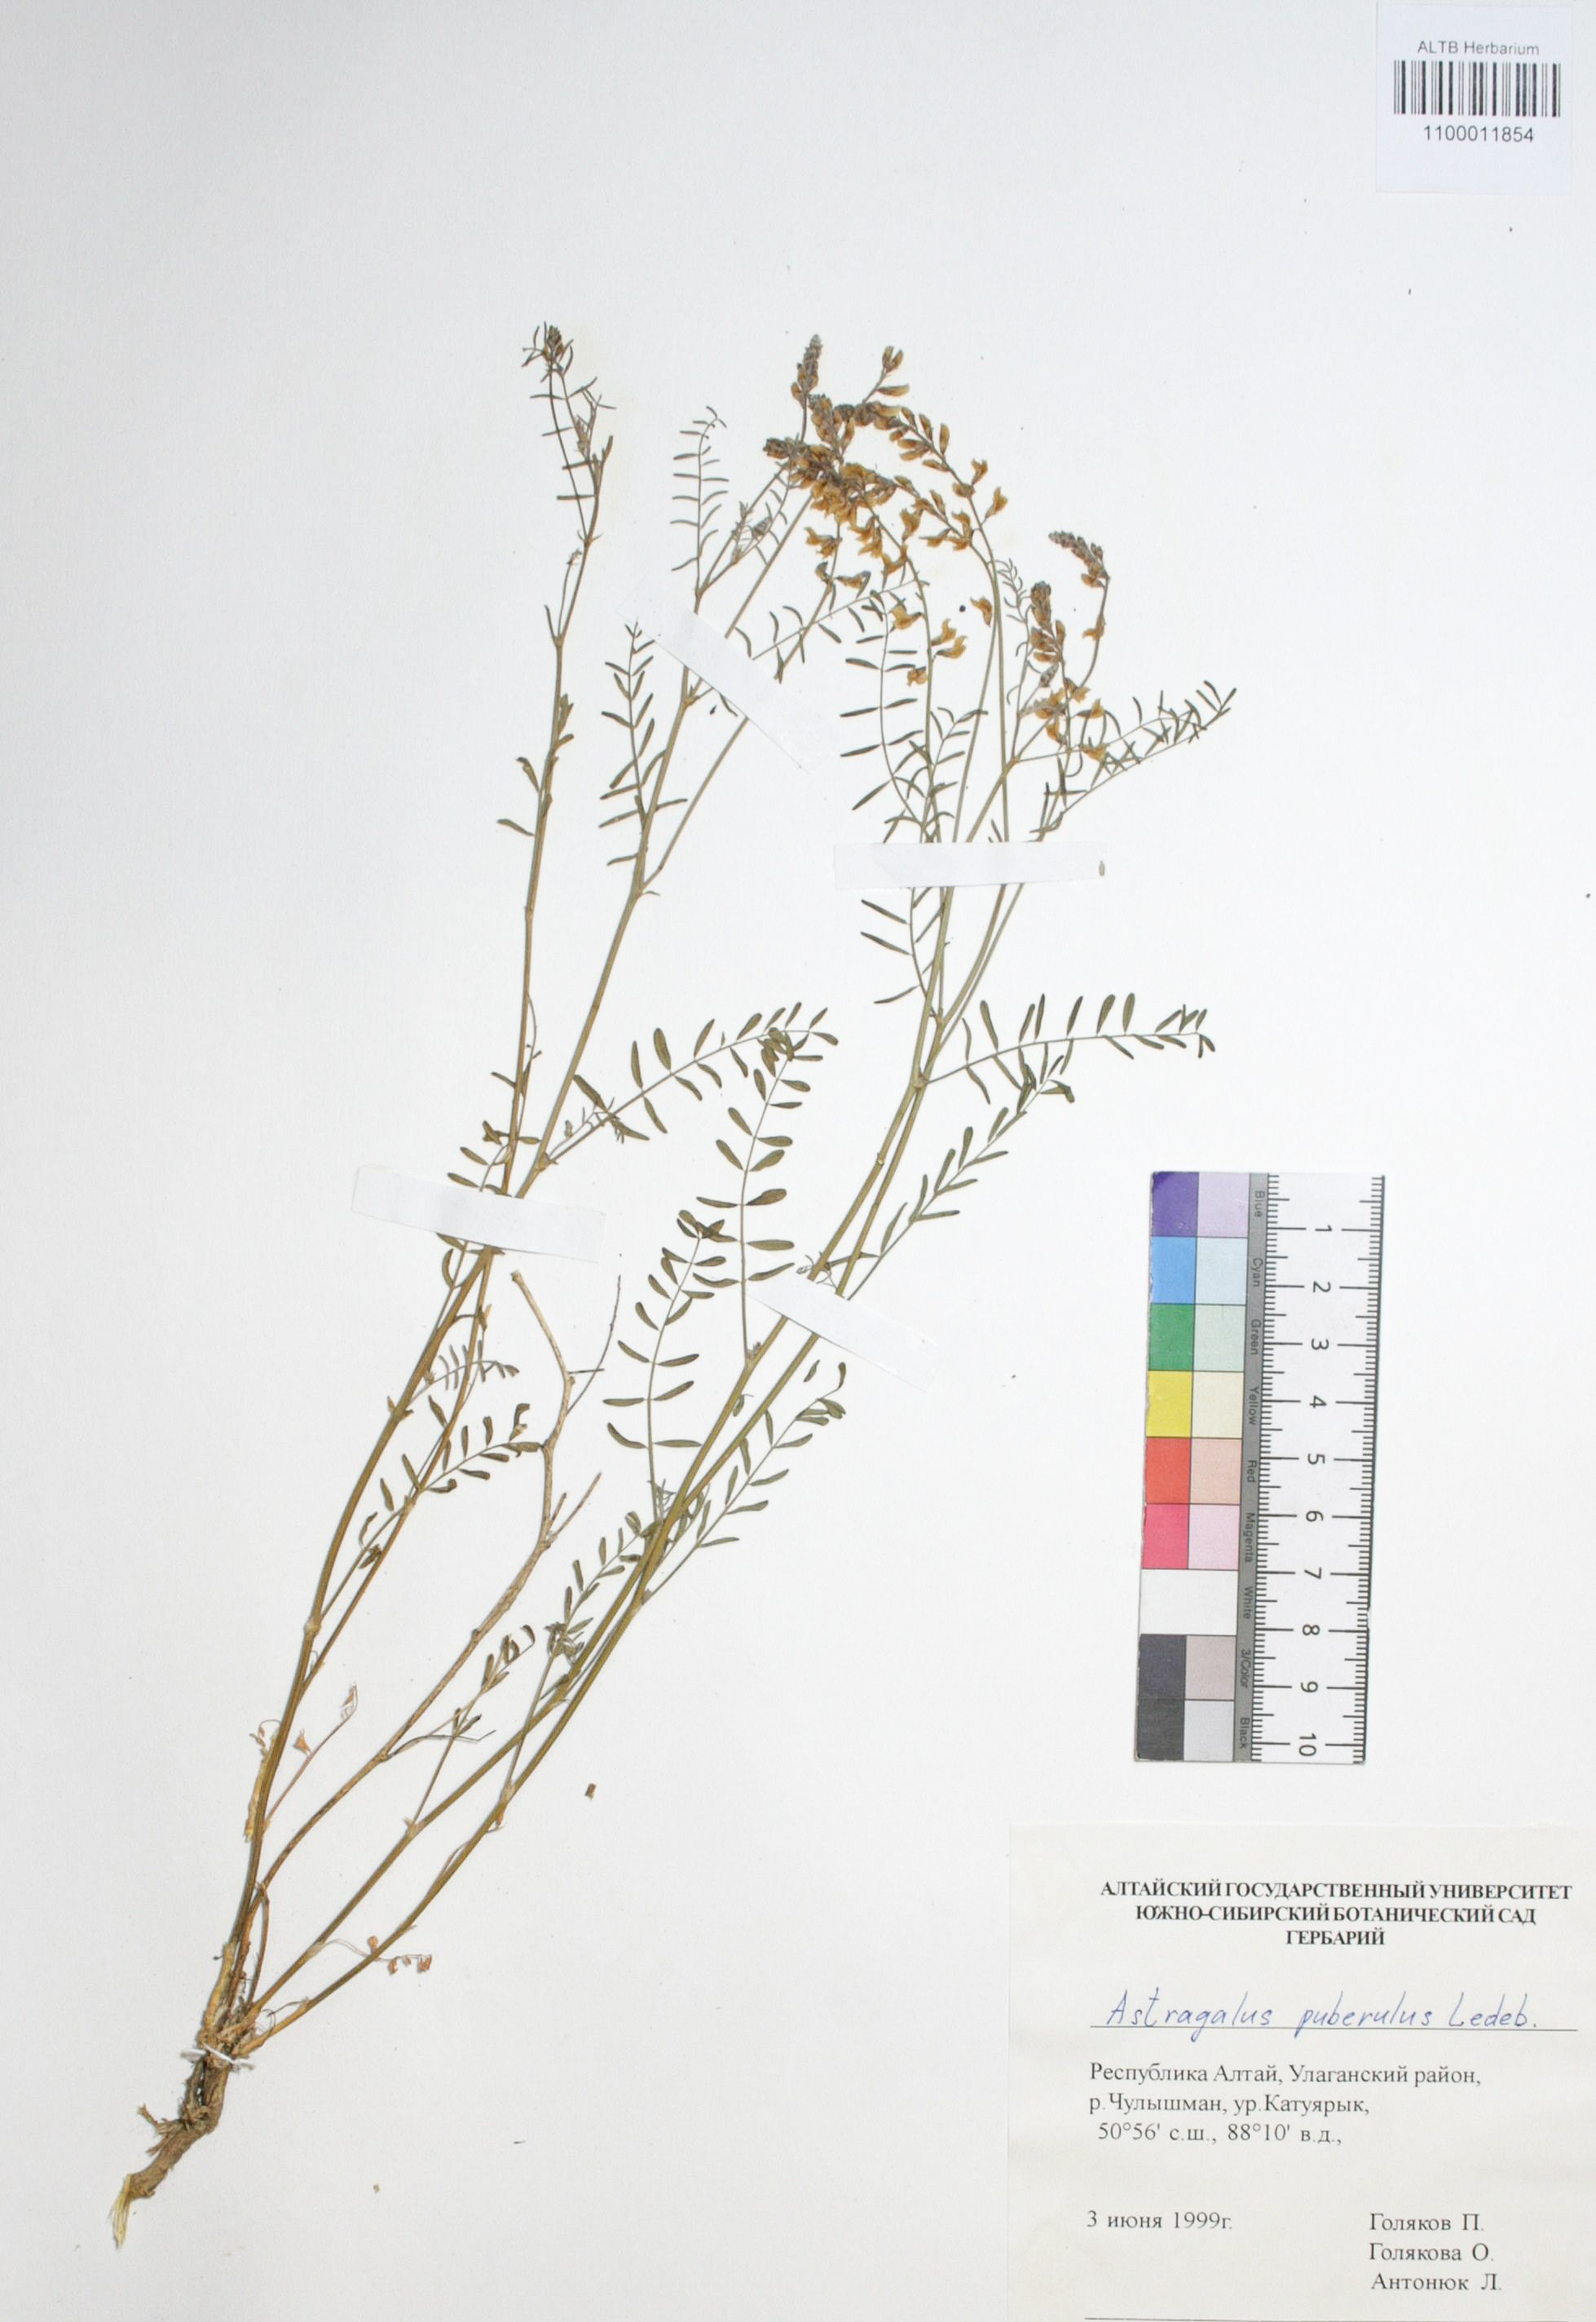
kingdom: Plantae
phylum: Tracheophyta
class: Magnoliopsida
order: Fabales
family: Fabaceae
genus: Astragalus
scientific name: Astragalus puberulus
